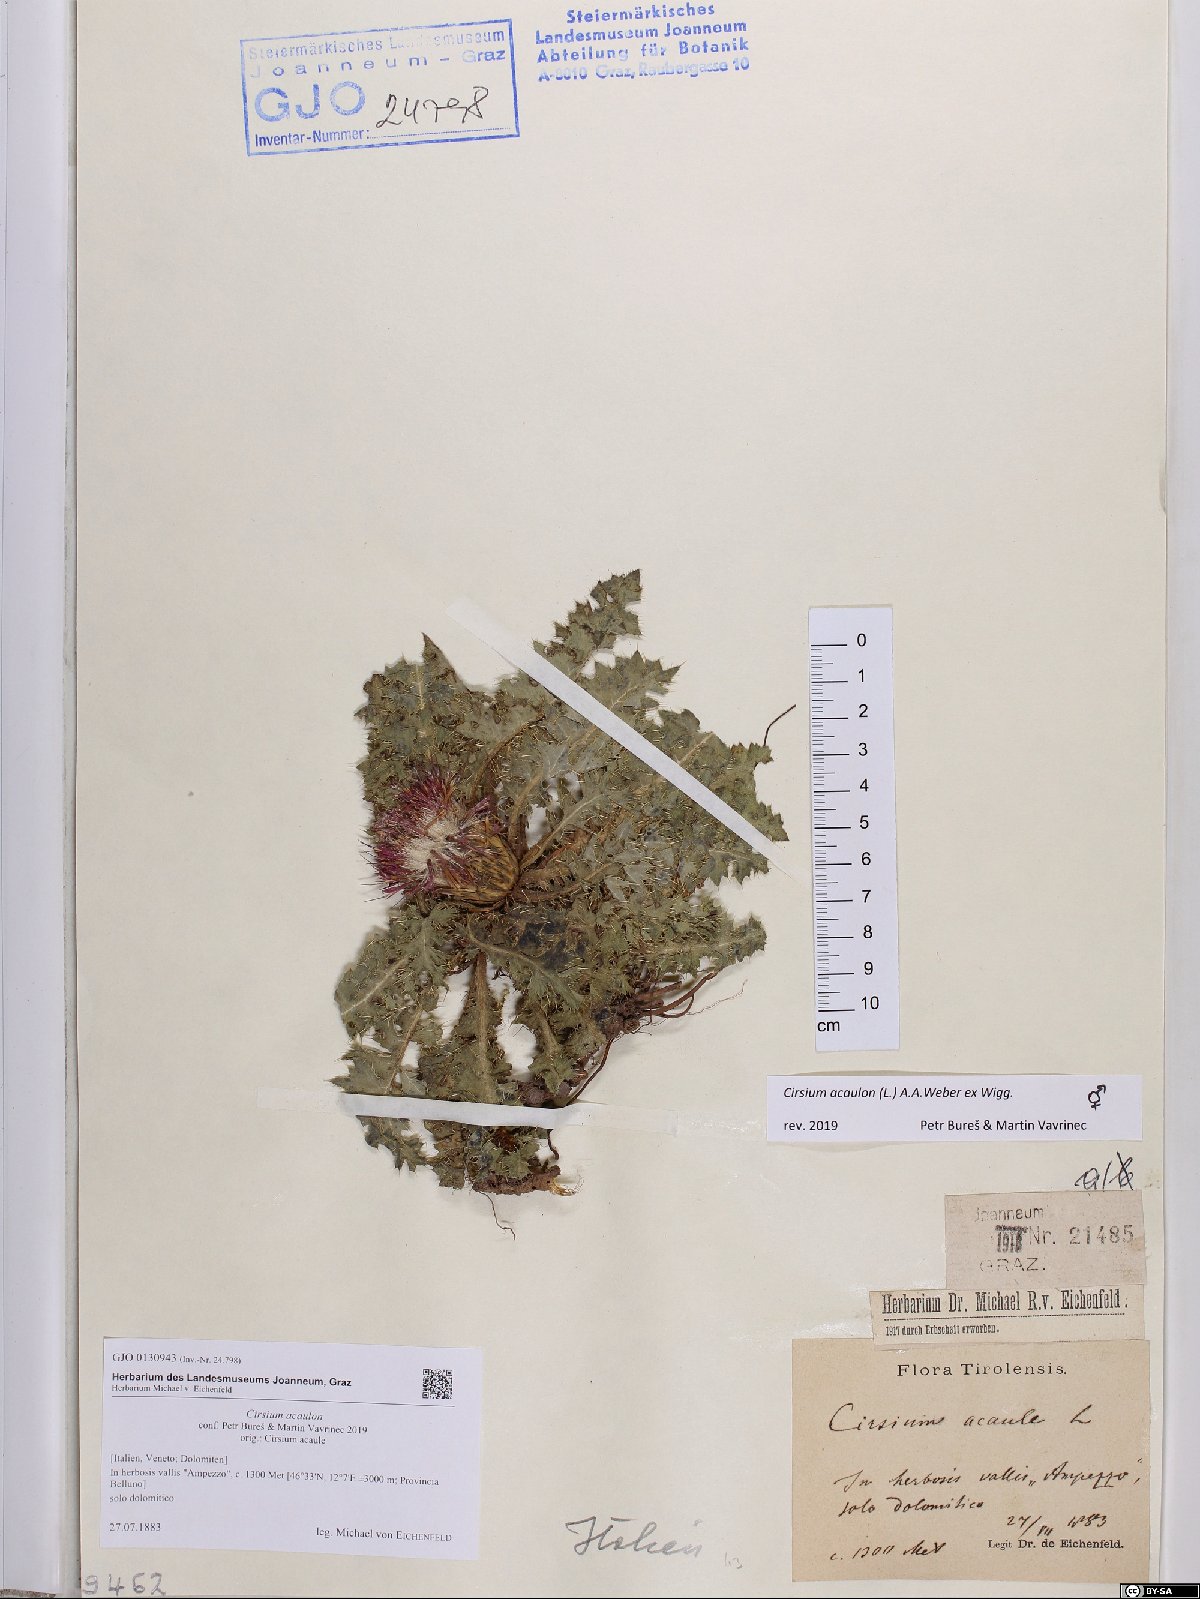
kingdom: Plantae
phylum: Tracheophyta
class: Magnoliopsida
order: Asterales
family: Asteraceae
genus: Cirsium
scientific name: Cirsium acaulon
